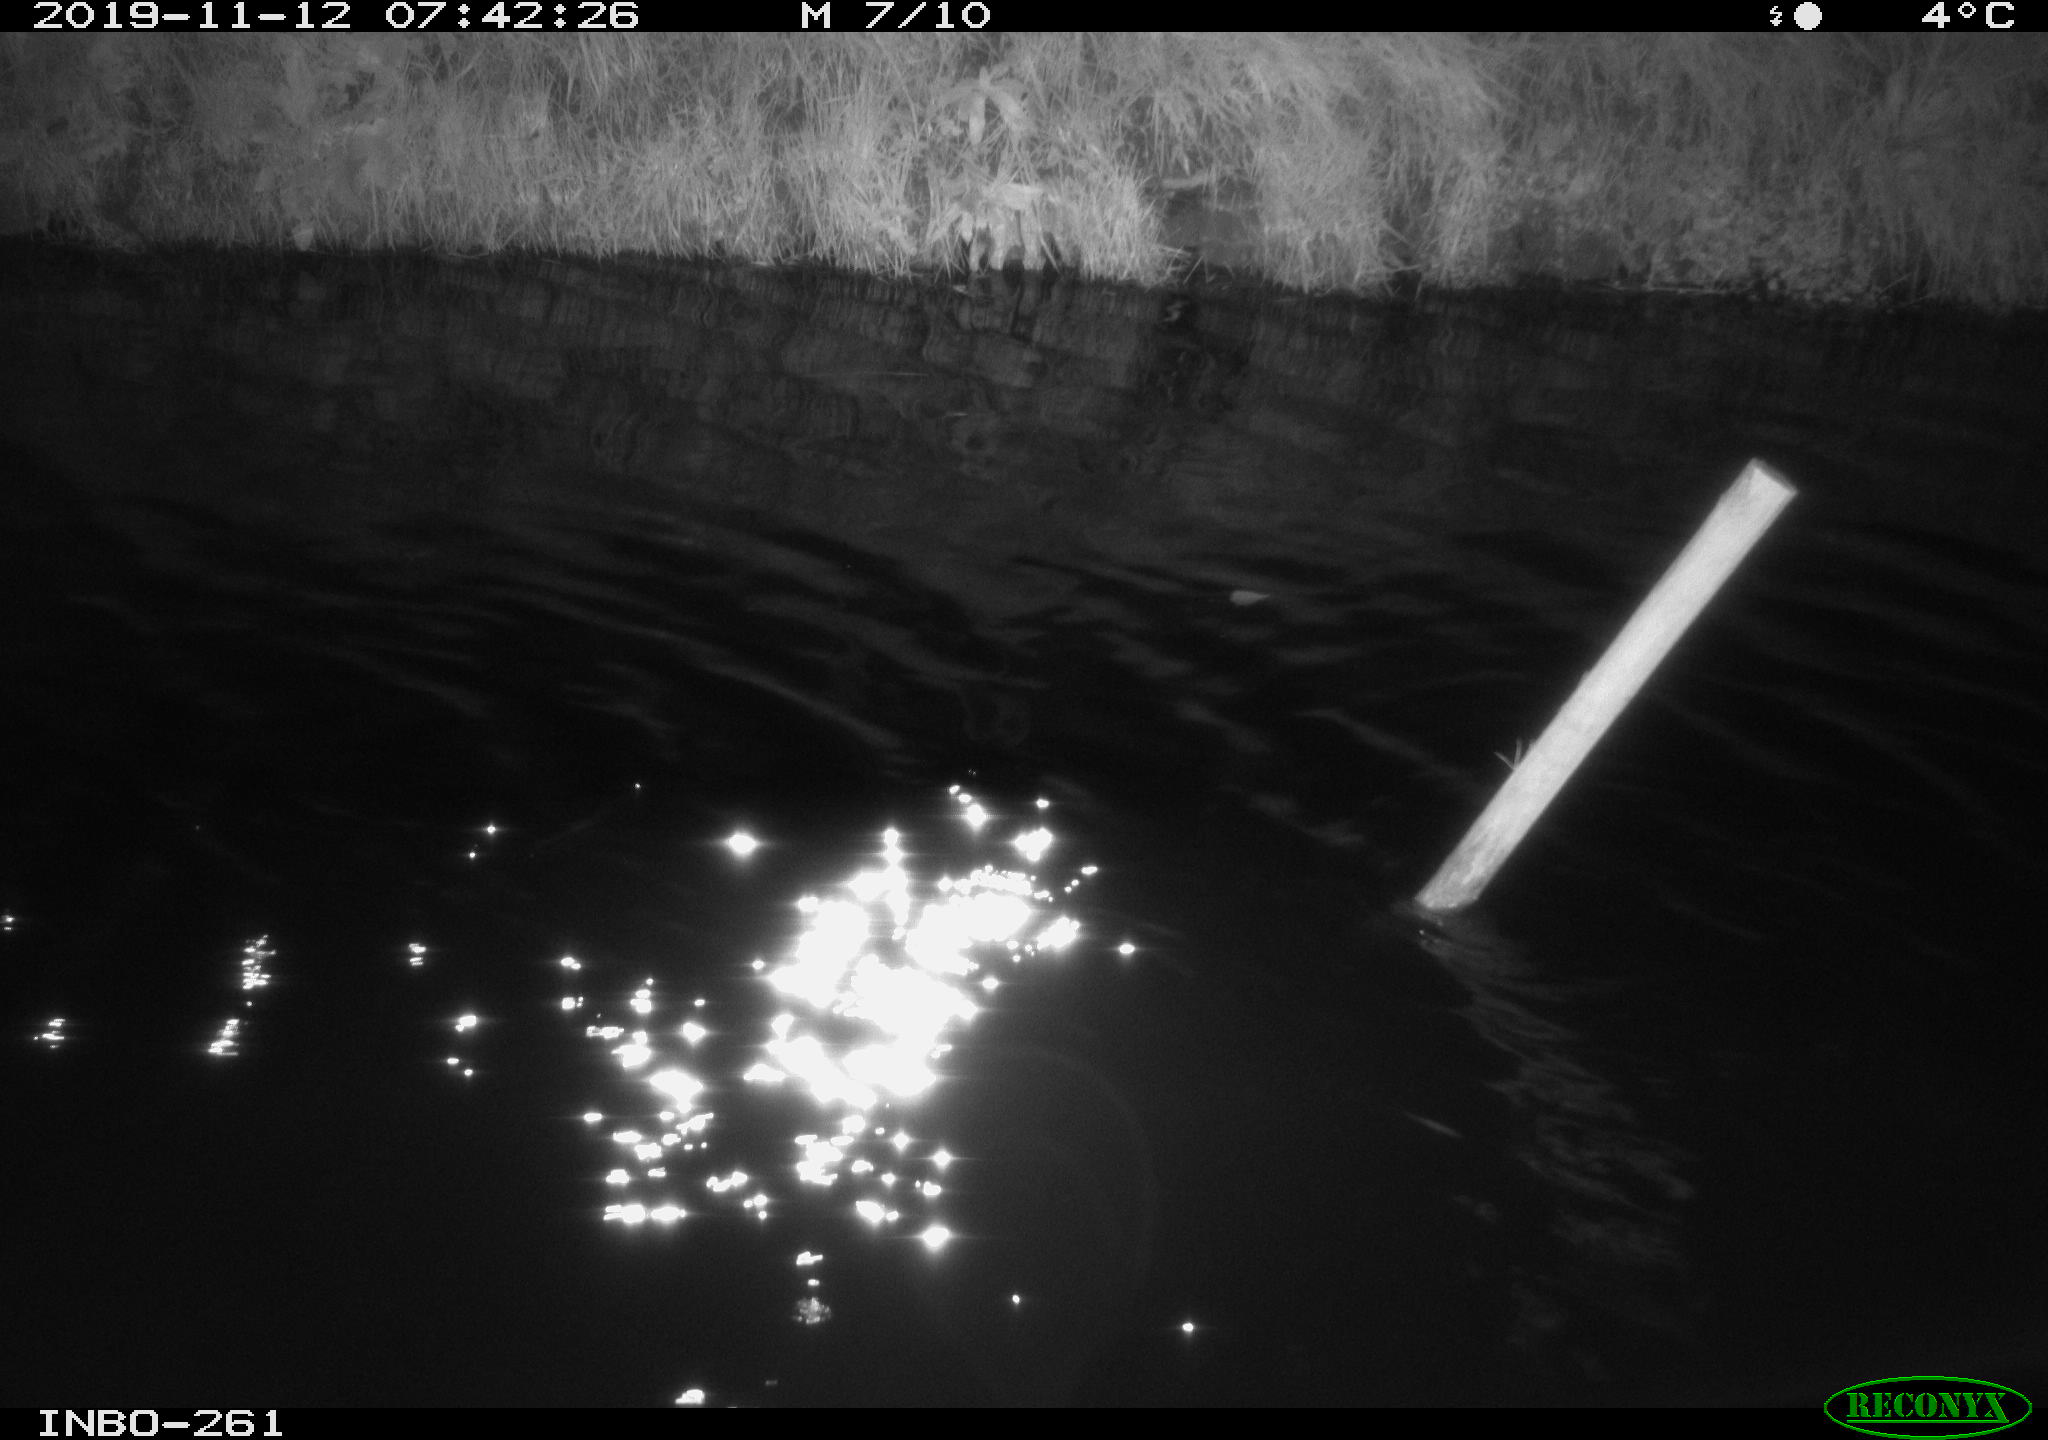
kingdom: Animalia
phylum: Chordata
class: Aves
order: Anseriformes
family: Anatidae
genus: Anas
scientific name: Anas platyrhynchos
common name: Mallard
